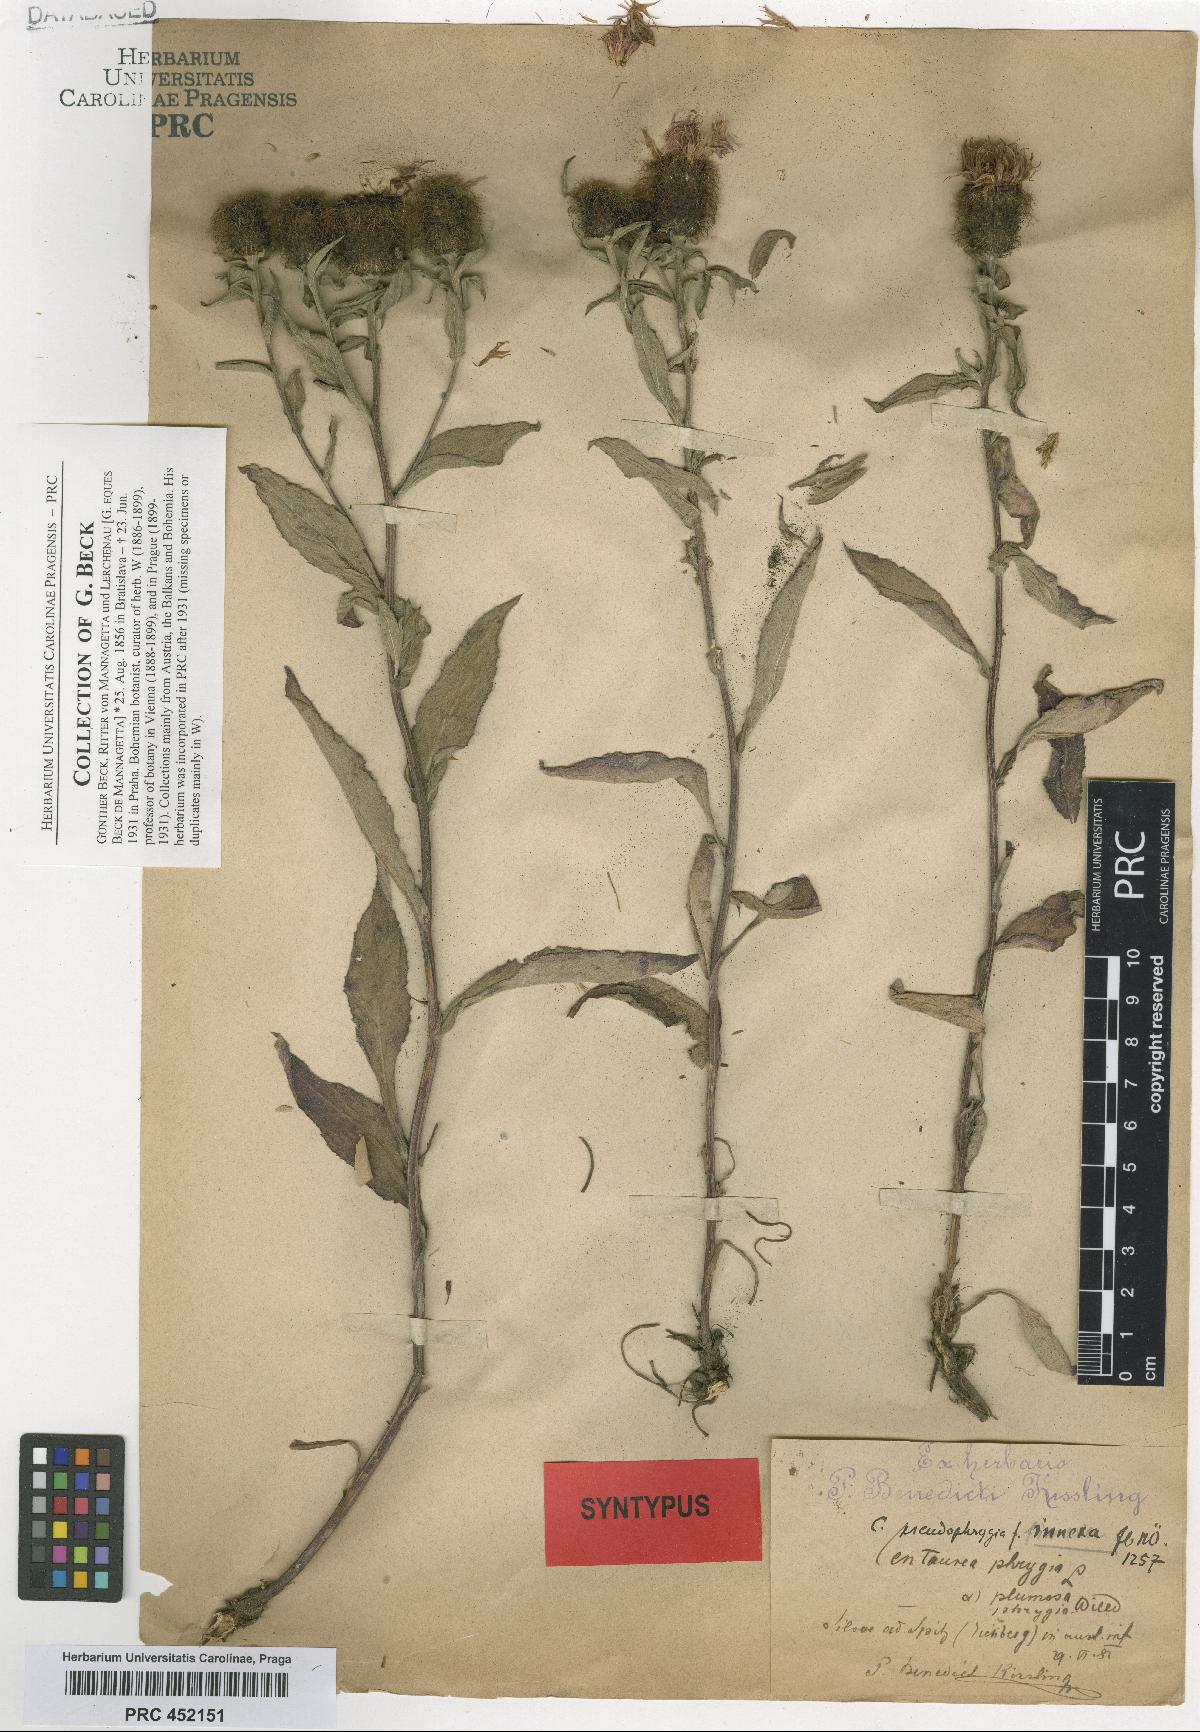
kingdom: Plantae
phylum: Tracheophyta
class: Magnoliopsida
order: Asterales
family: Asteraceae
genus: Centaurea
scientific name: Centaurea pseudophrygia
